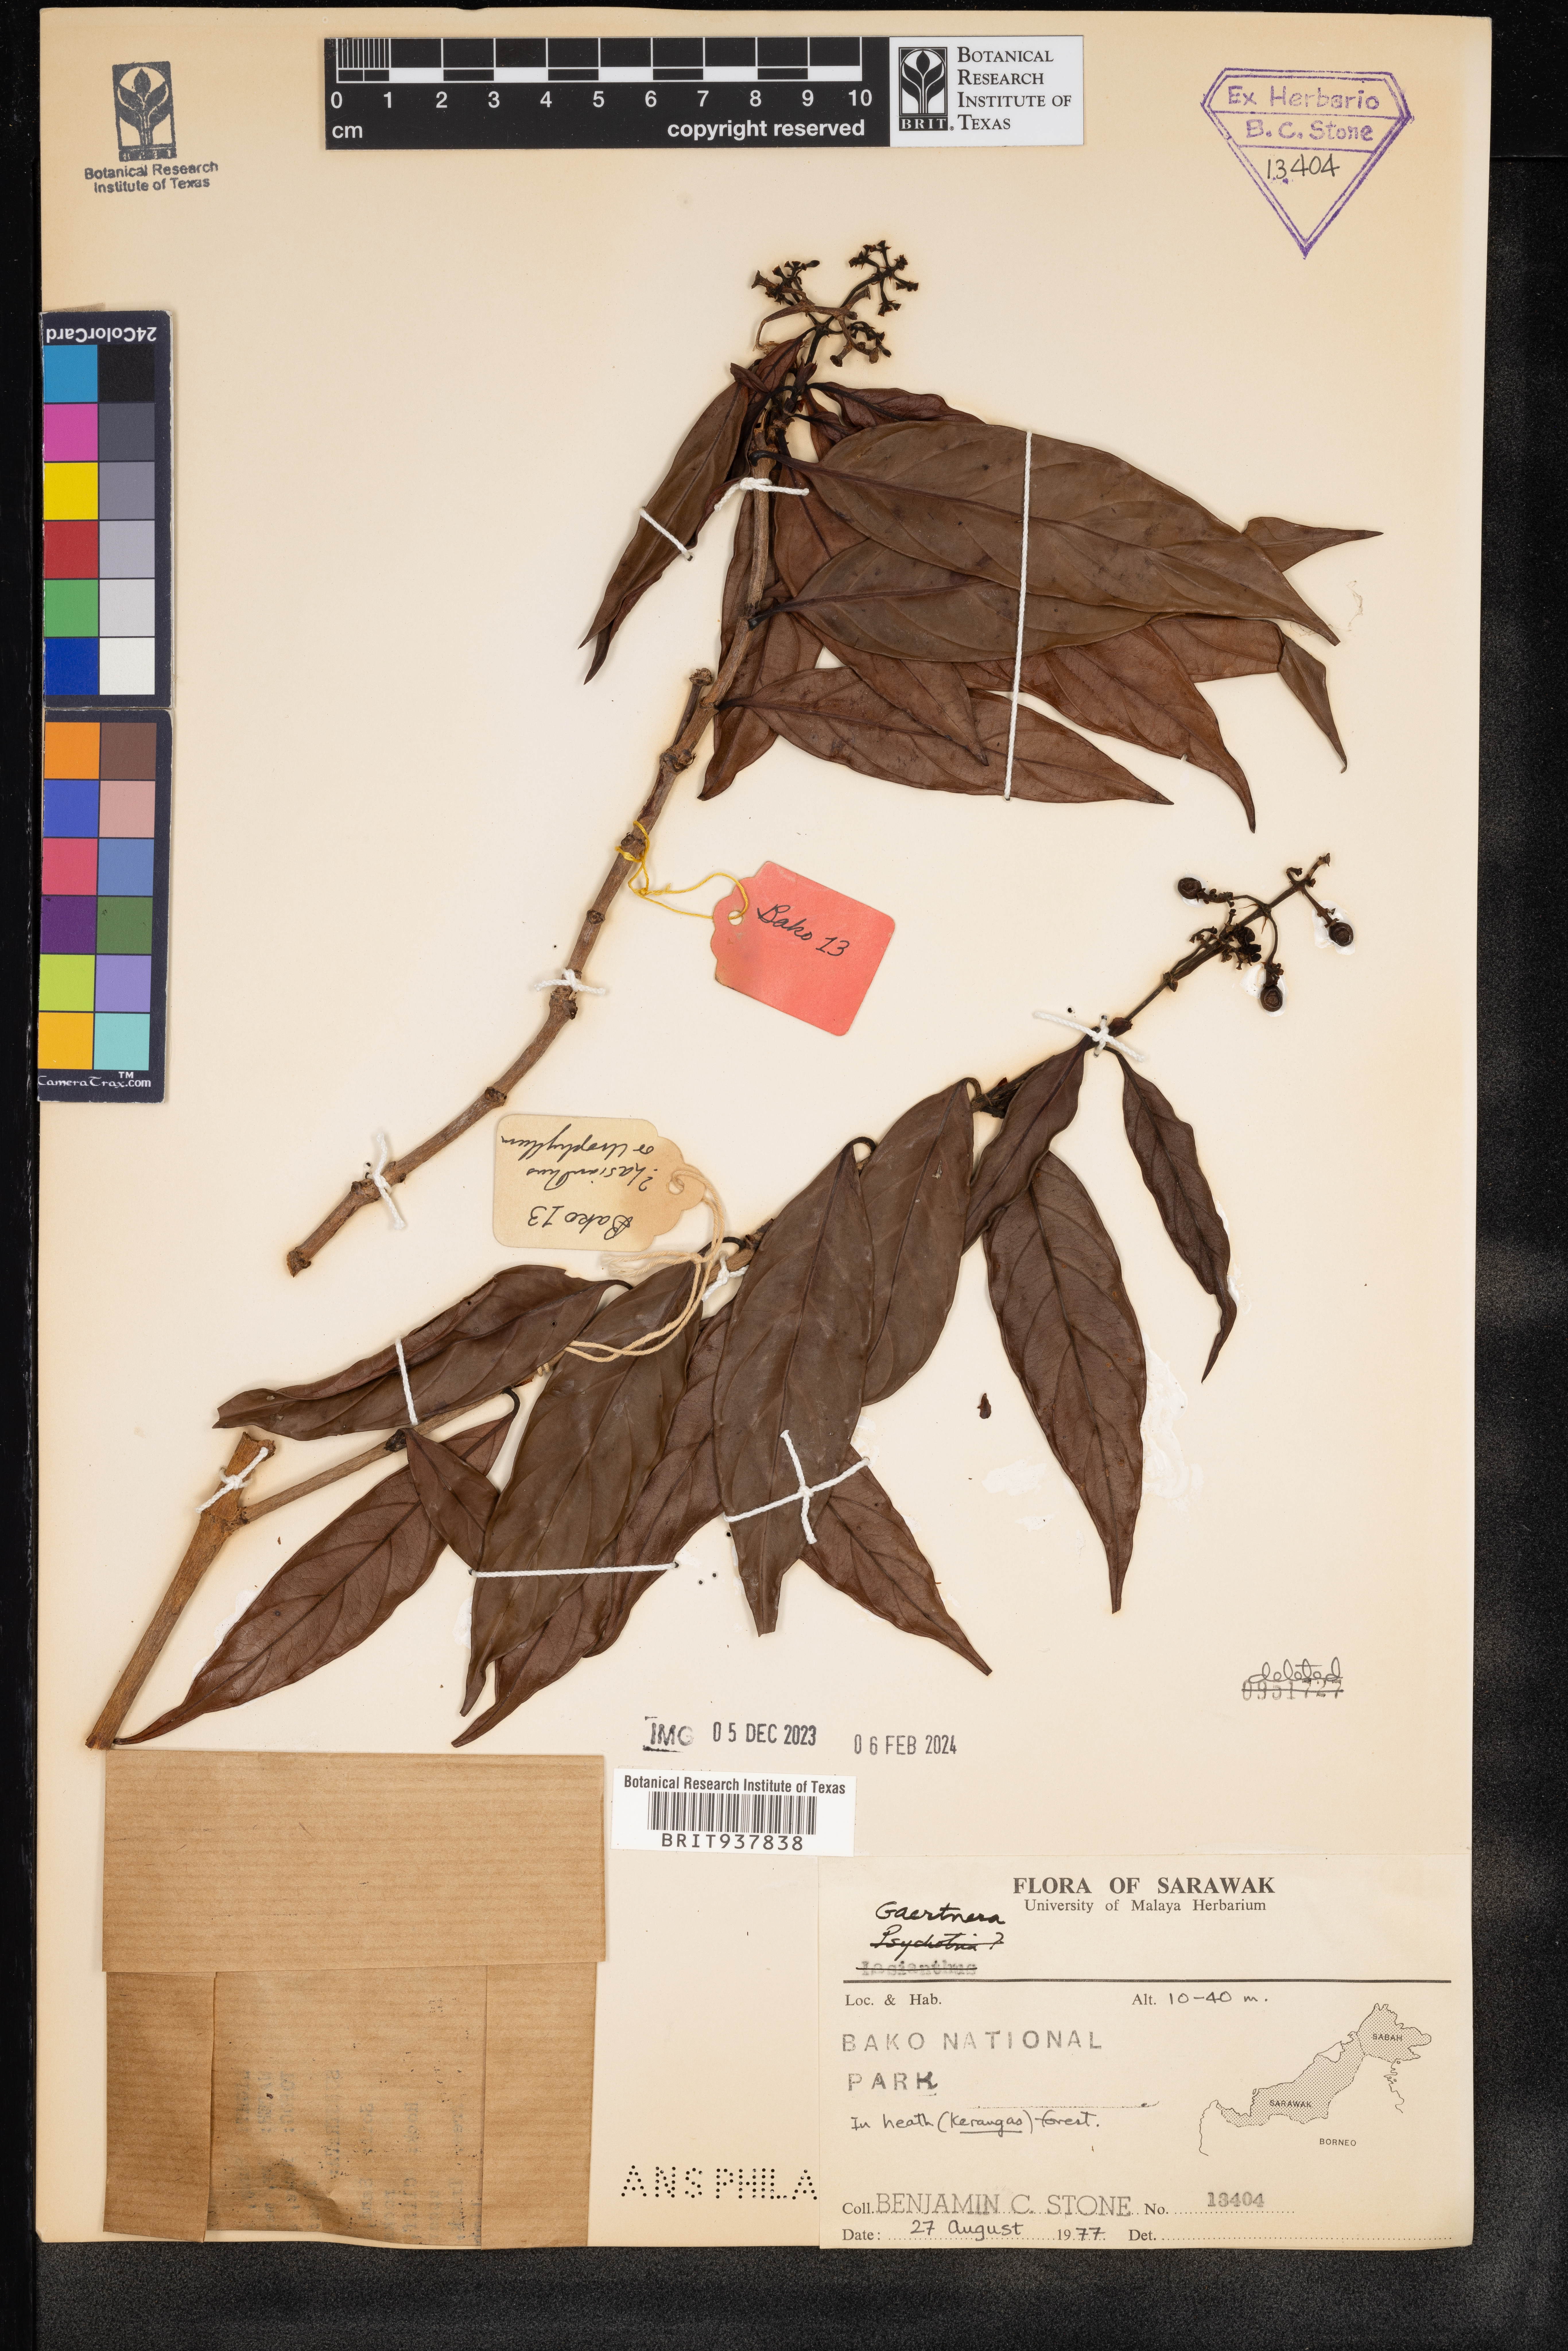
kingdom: Plantae
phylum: Tracheophyta
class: Magnoliopsida
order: Gentianales
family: Rubiaceae
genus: Gaertnera
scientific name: Gaertnera
